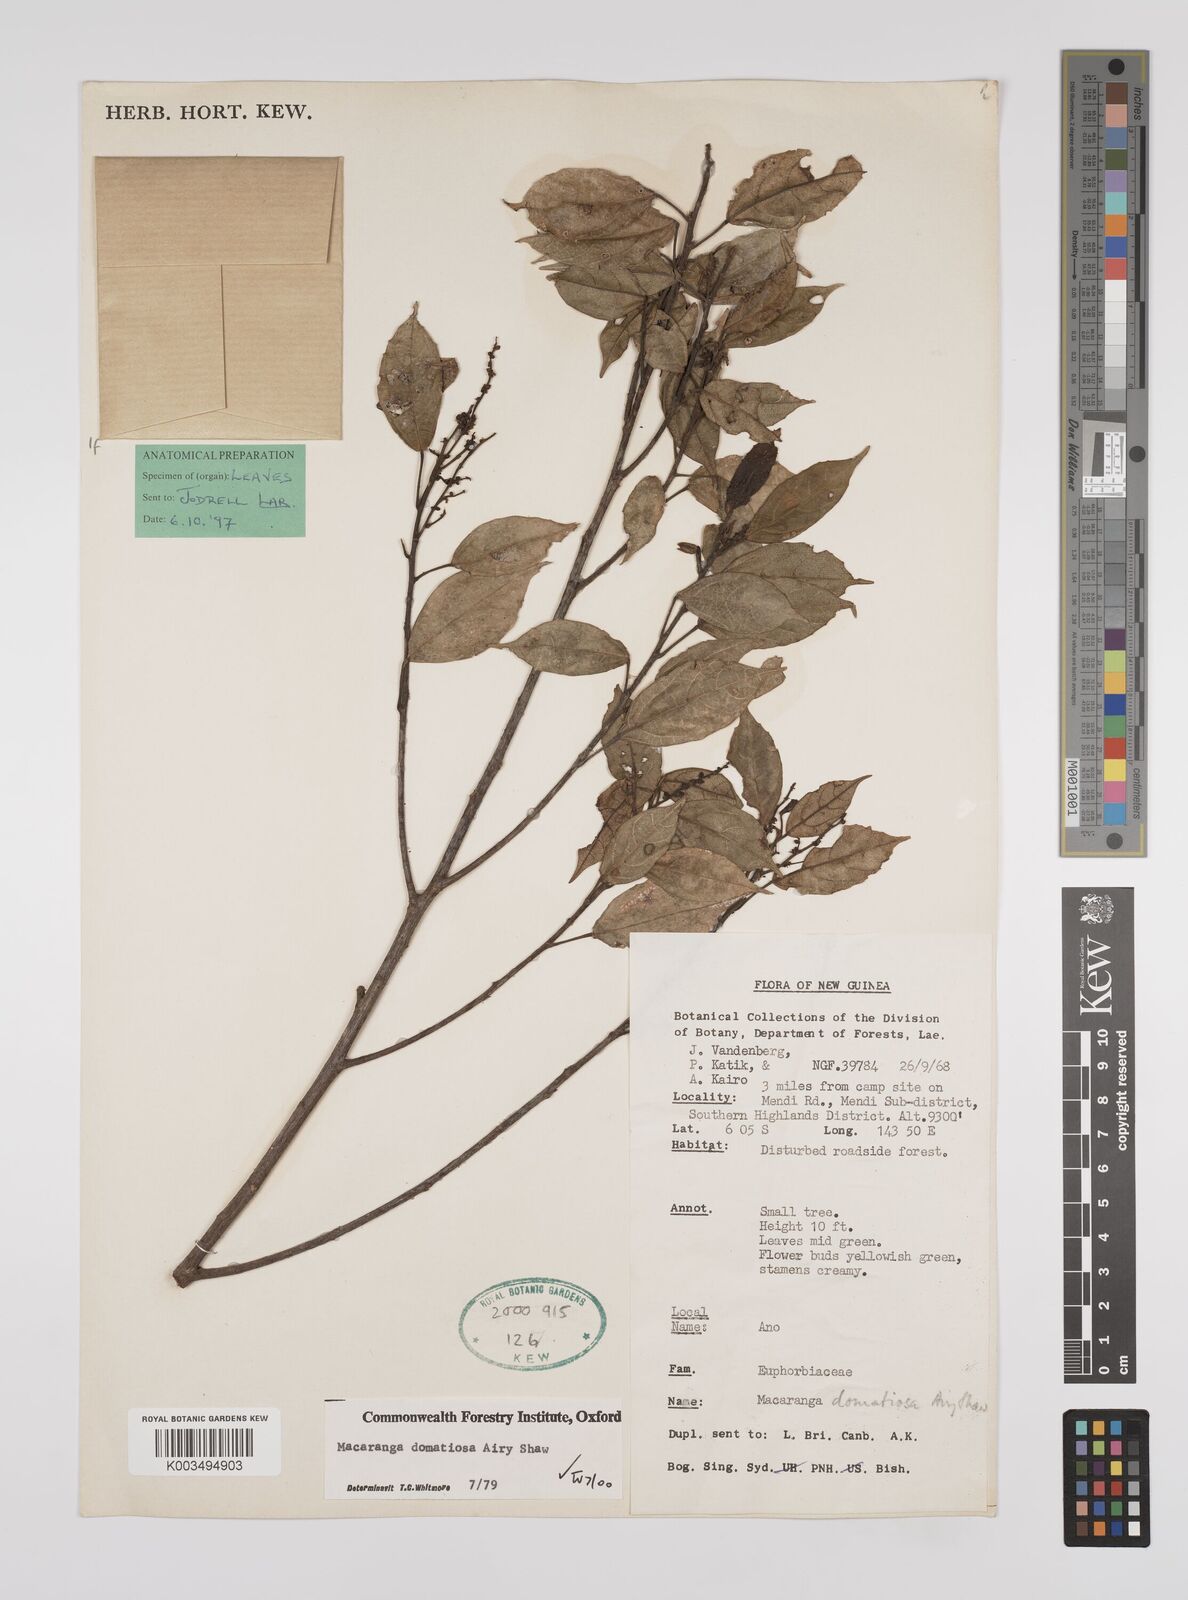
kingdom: Plantae
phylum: Tracheophyta
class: Magnoliopsida
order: Malpighiales
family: Euphorbiaceae
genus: Macaranga
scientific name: Macaranga domatiosa
